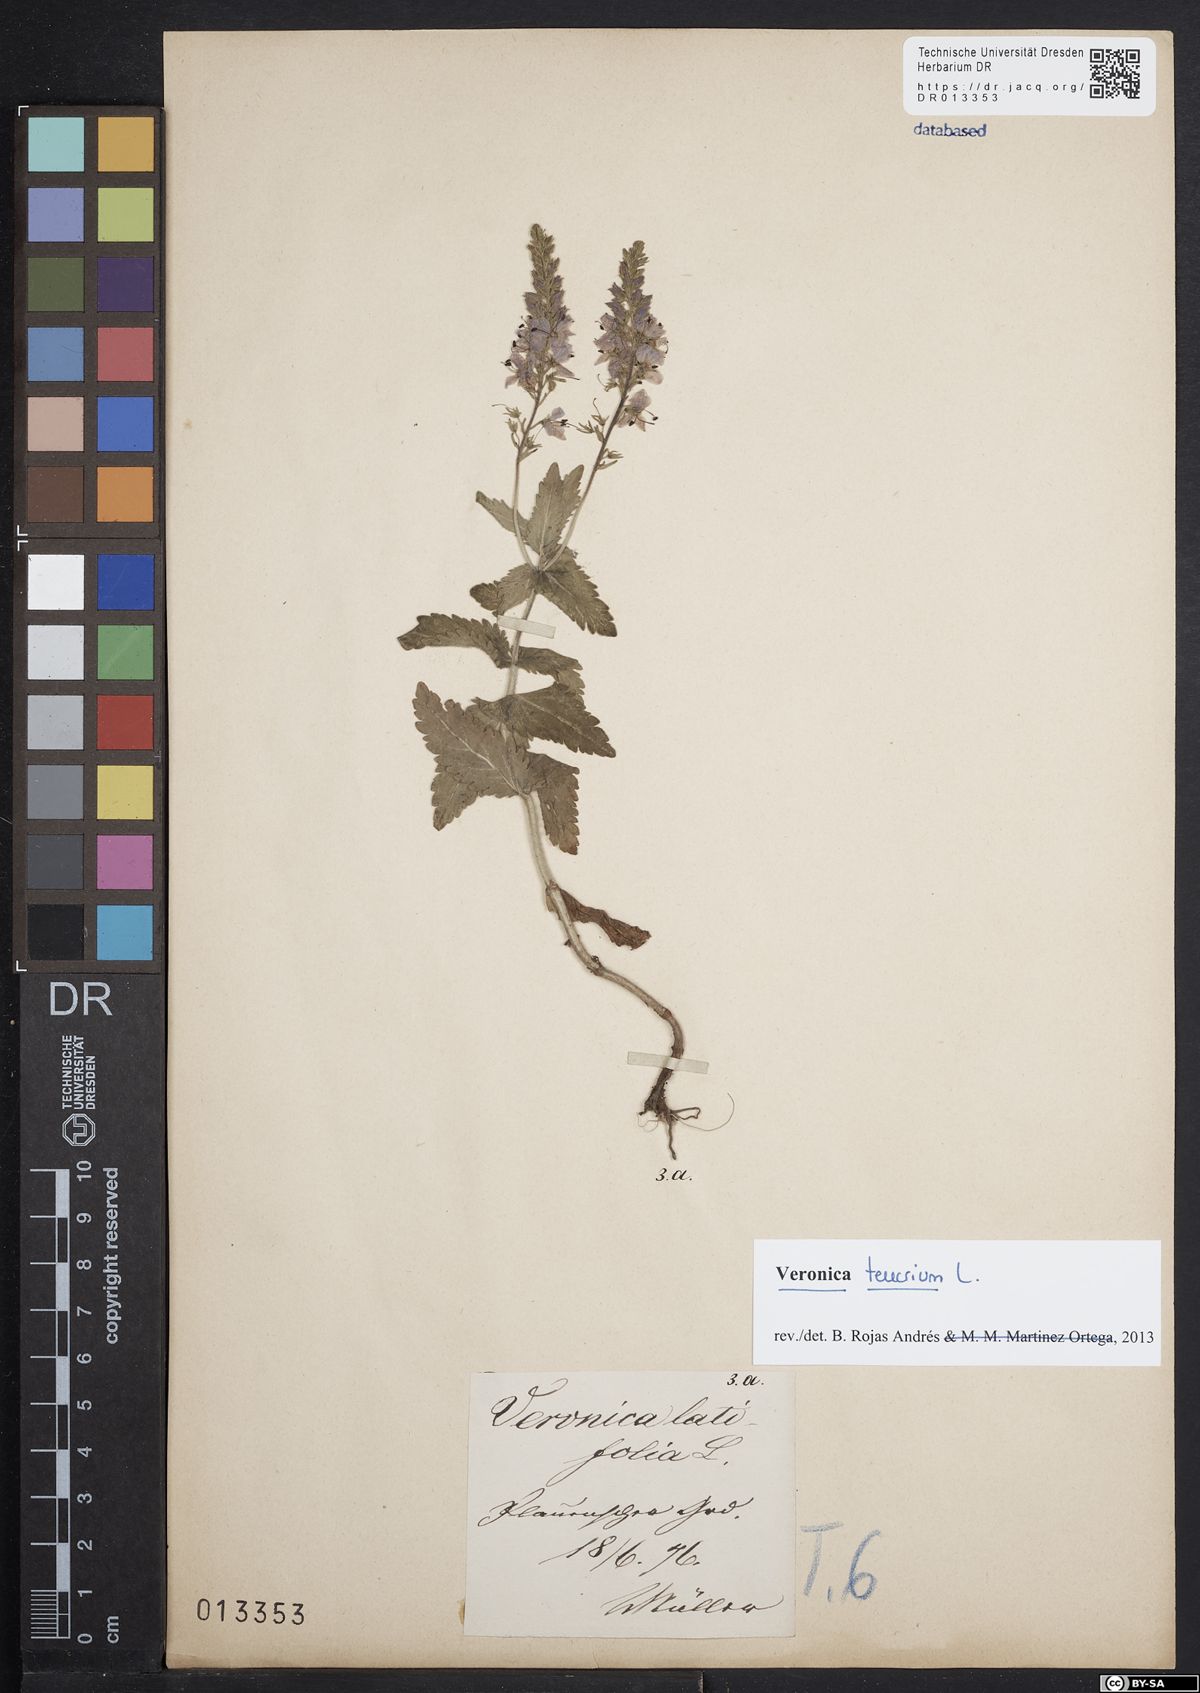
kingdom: Plantae
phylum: Tracheophyta
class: Magnoliopsida
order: Lamiales
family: Plantaginaceae
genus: Veronica
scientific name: Veronica teucrium
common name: Large speedwell
